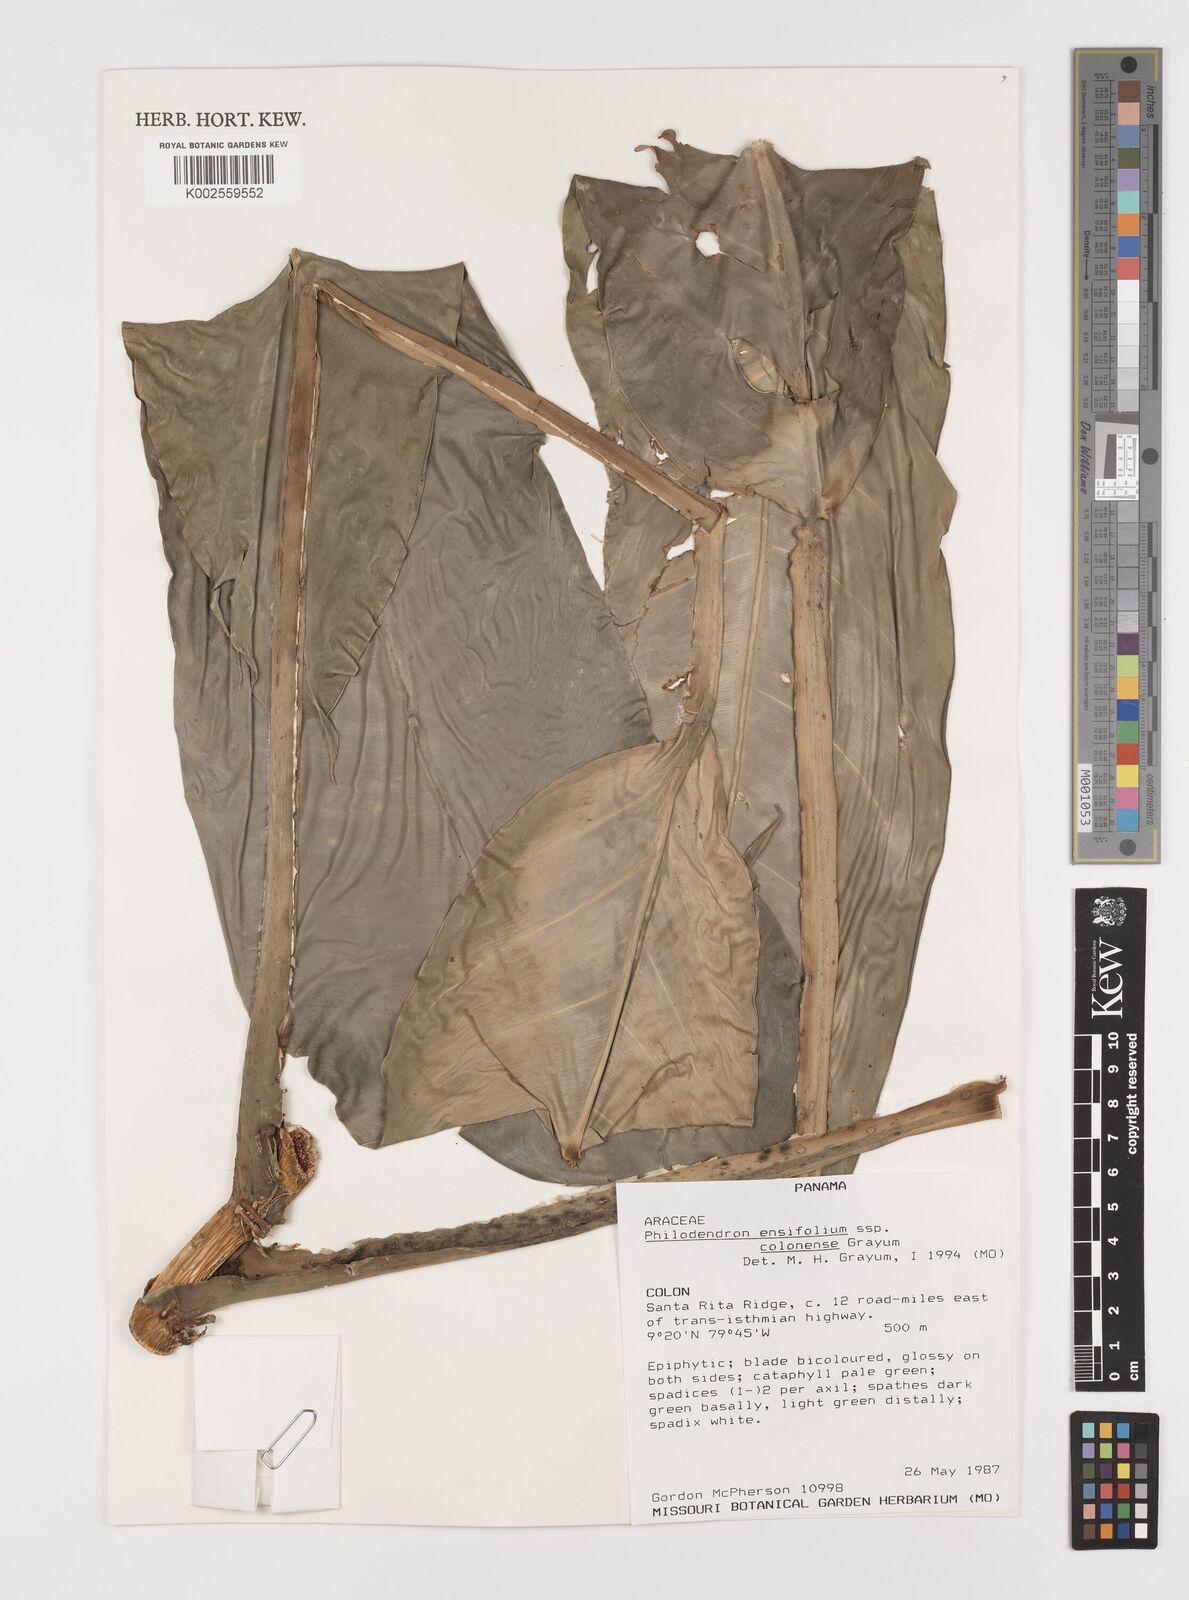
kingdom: Plantae
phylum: Tracheophyta
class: Liliopsida
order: Alismatales
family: Araceae
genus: Philodendron
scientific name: Philodendron ensifolium
